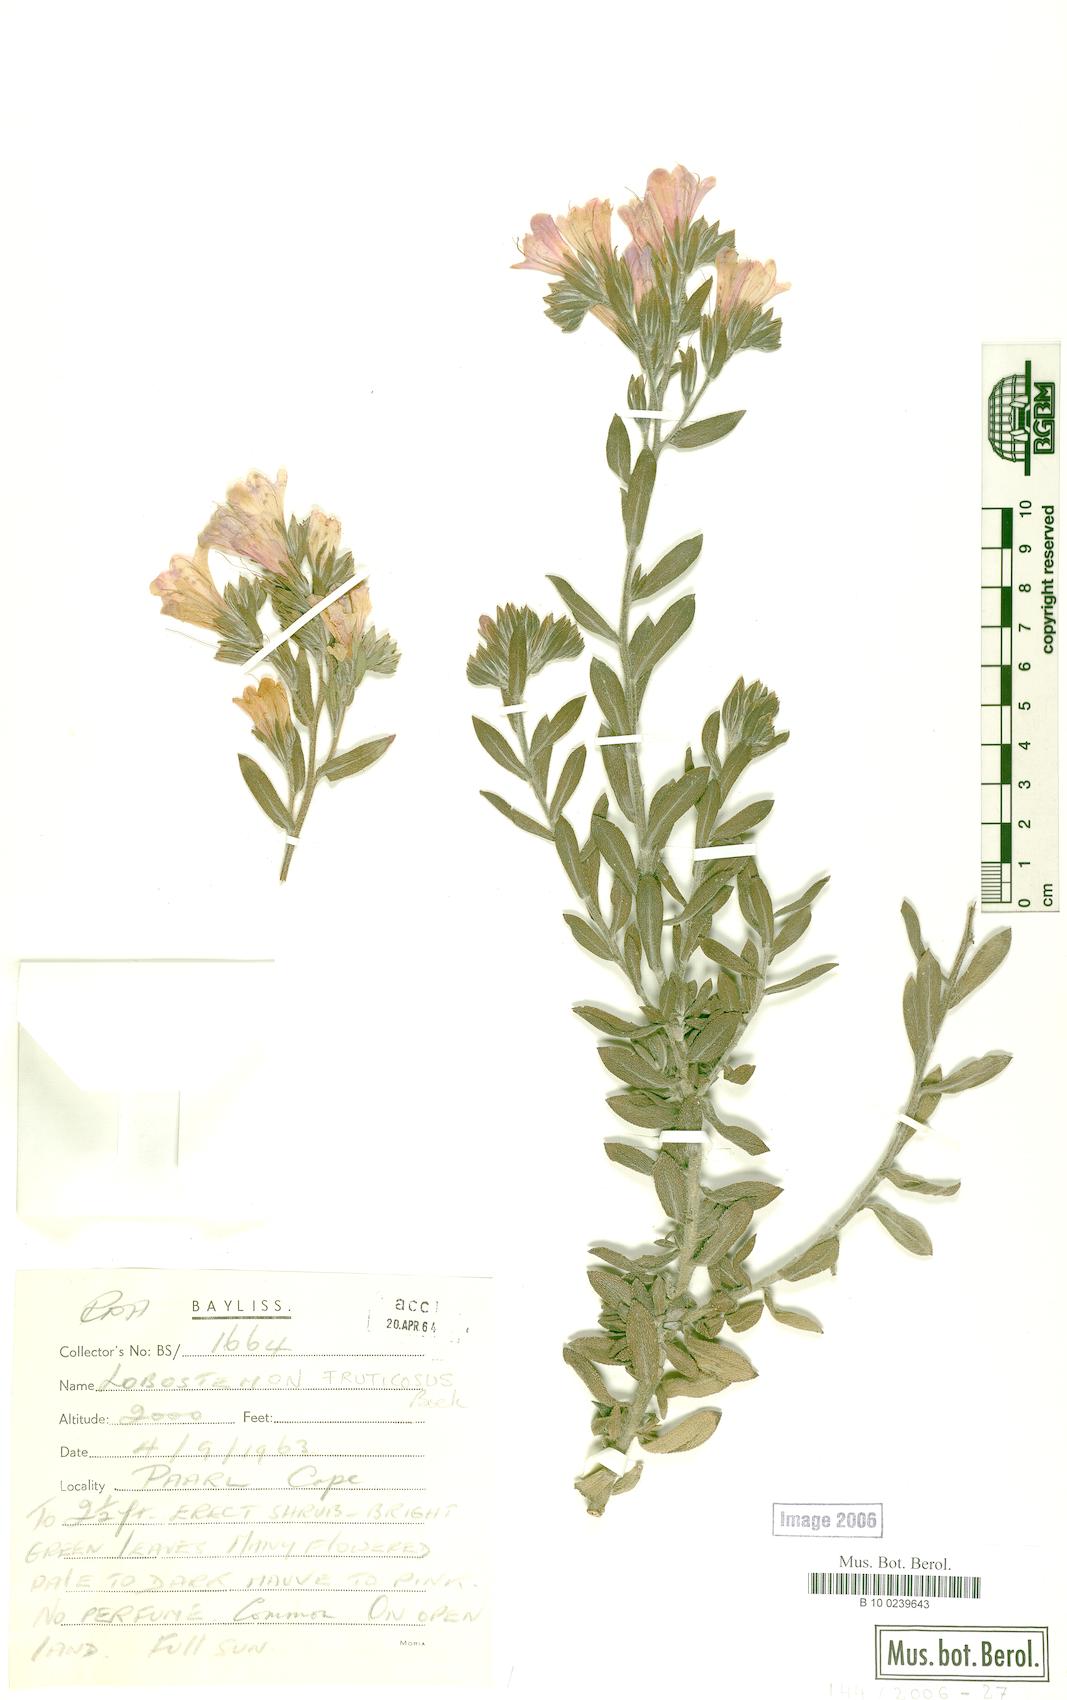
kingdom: Plantae
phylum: Tracheophyta
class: Magnoliopsida
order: Boraginales
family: Boraginaceae
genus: Lobostemon
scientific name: Lobostemon fruticosus
